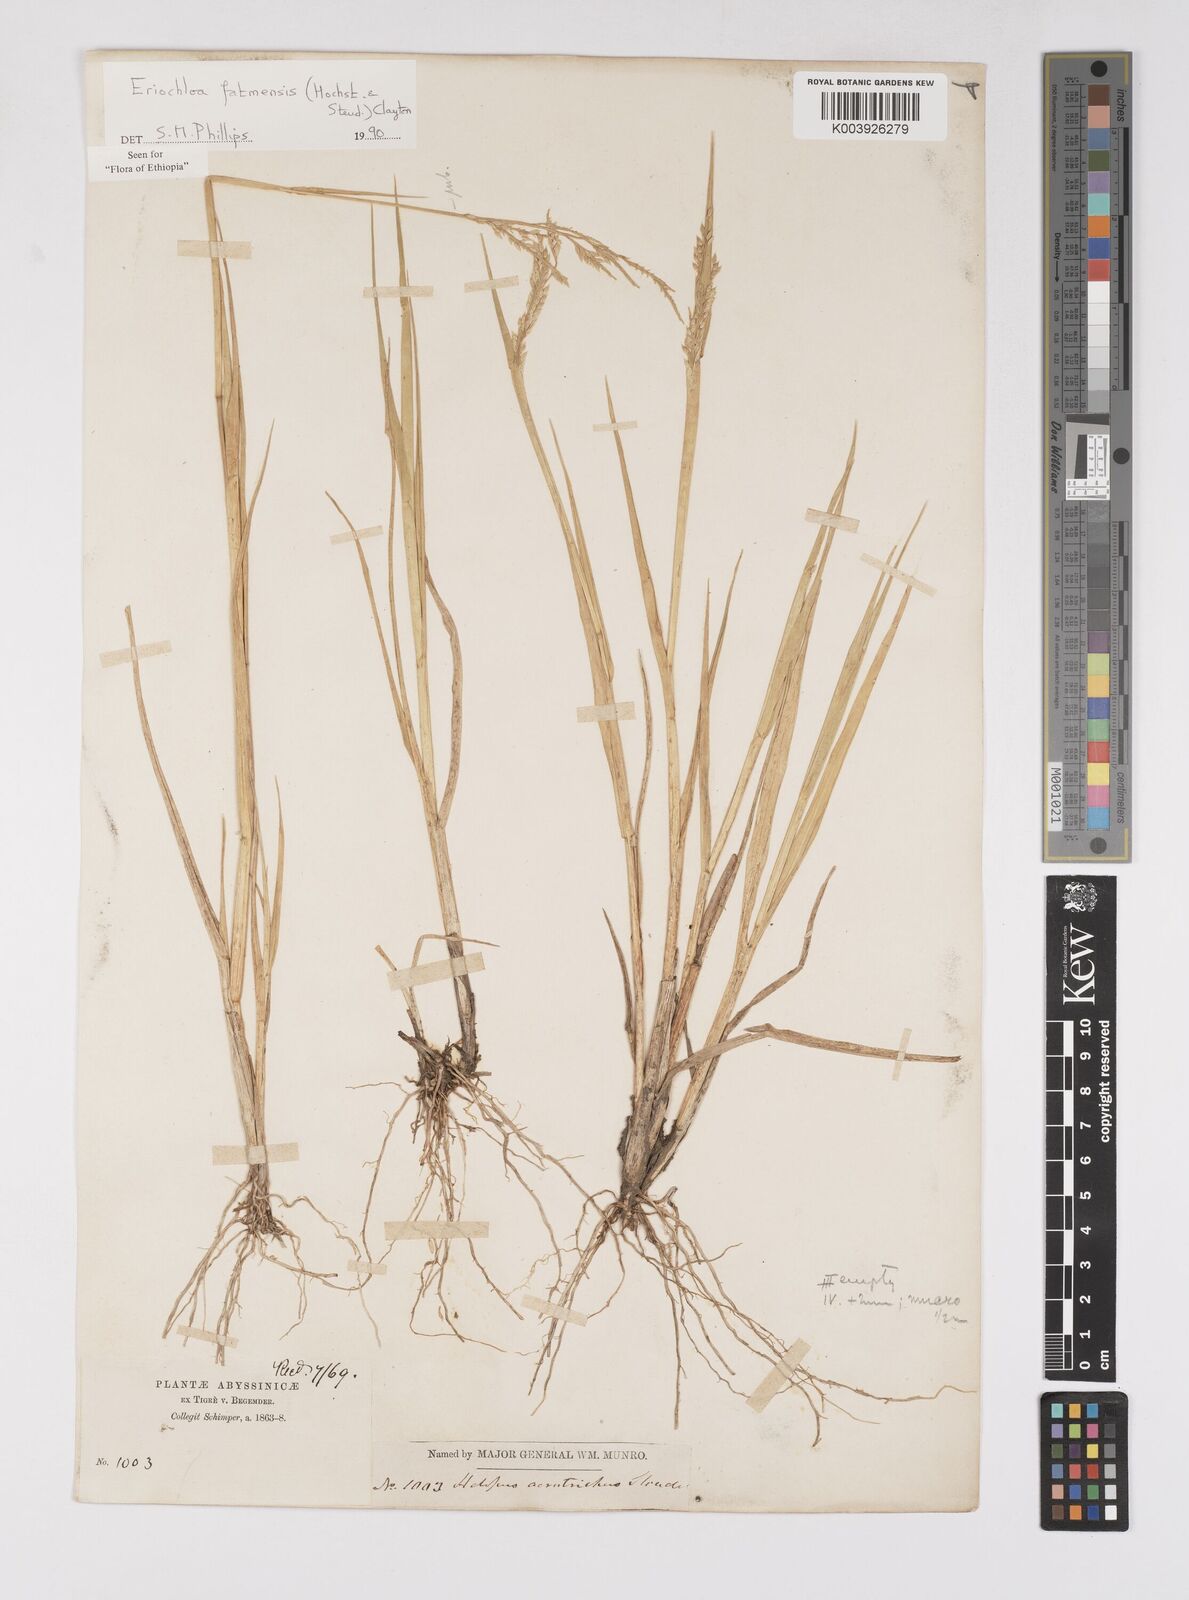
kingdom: Plantae
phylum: Tracheophyta
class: Liliopsida
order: Poales
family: Poaceae
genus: Eriochloa
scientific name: Eriochloa barbatus
